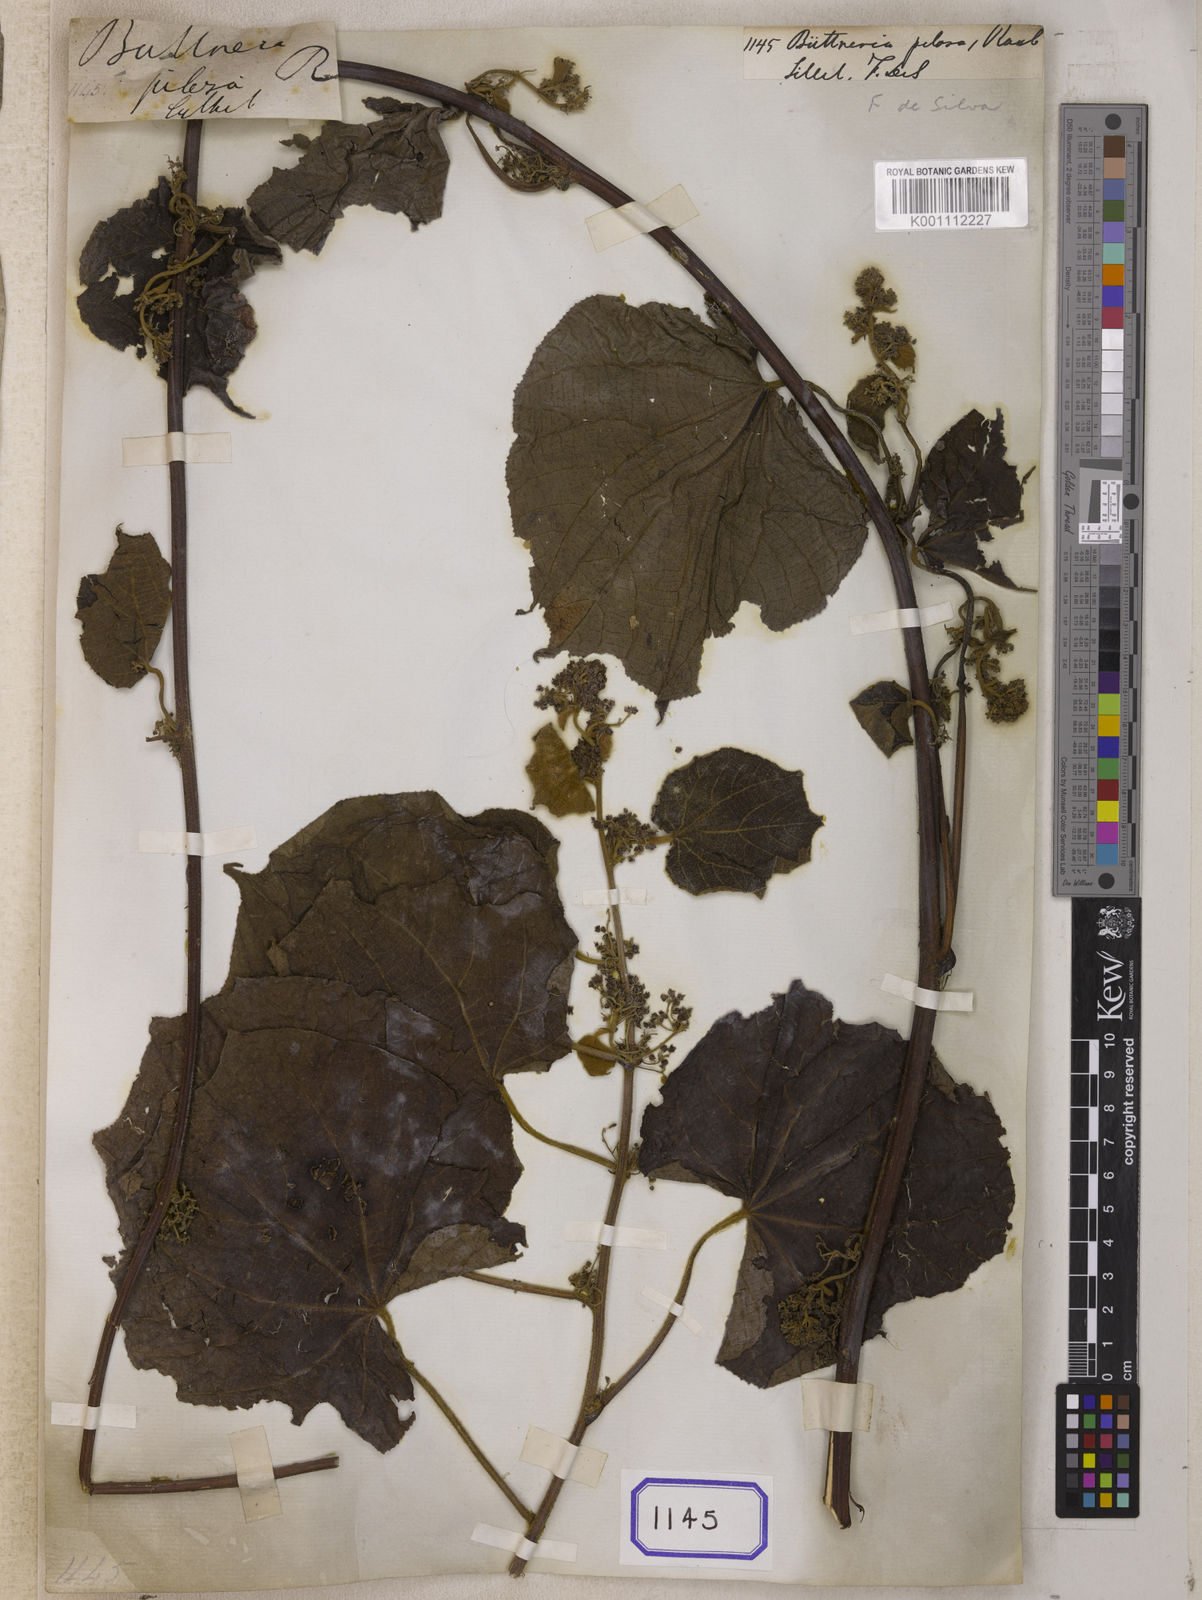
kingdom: Plantae
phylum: Tracheophyta
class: Magnoliopsida
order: Malvales
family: Malvaceae
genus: Byttneria
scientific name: Byttneria pilosa
